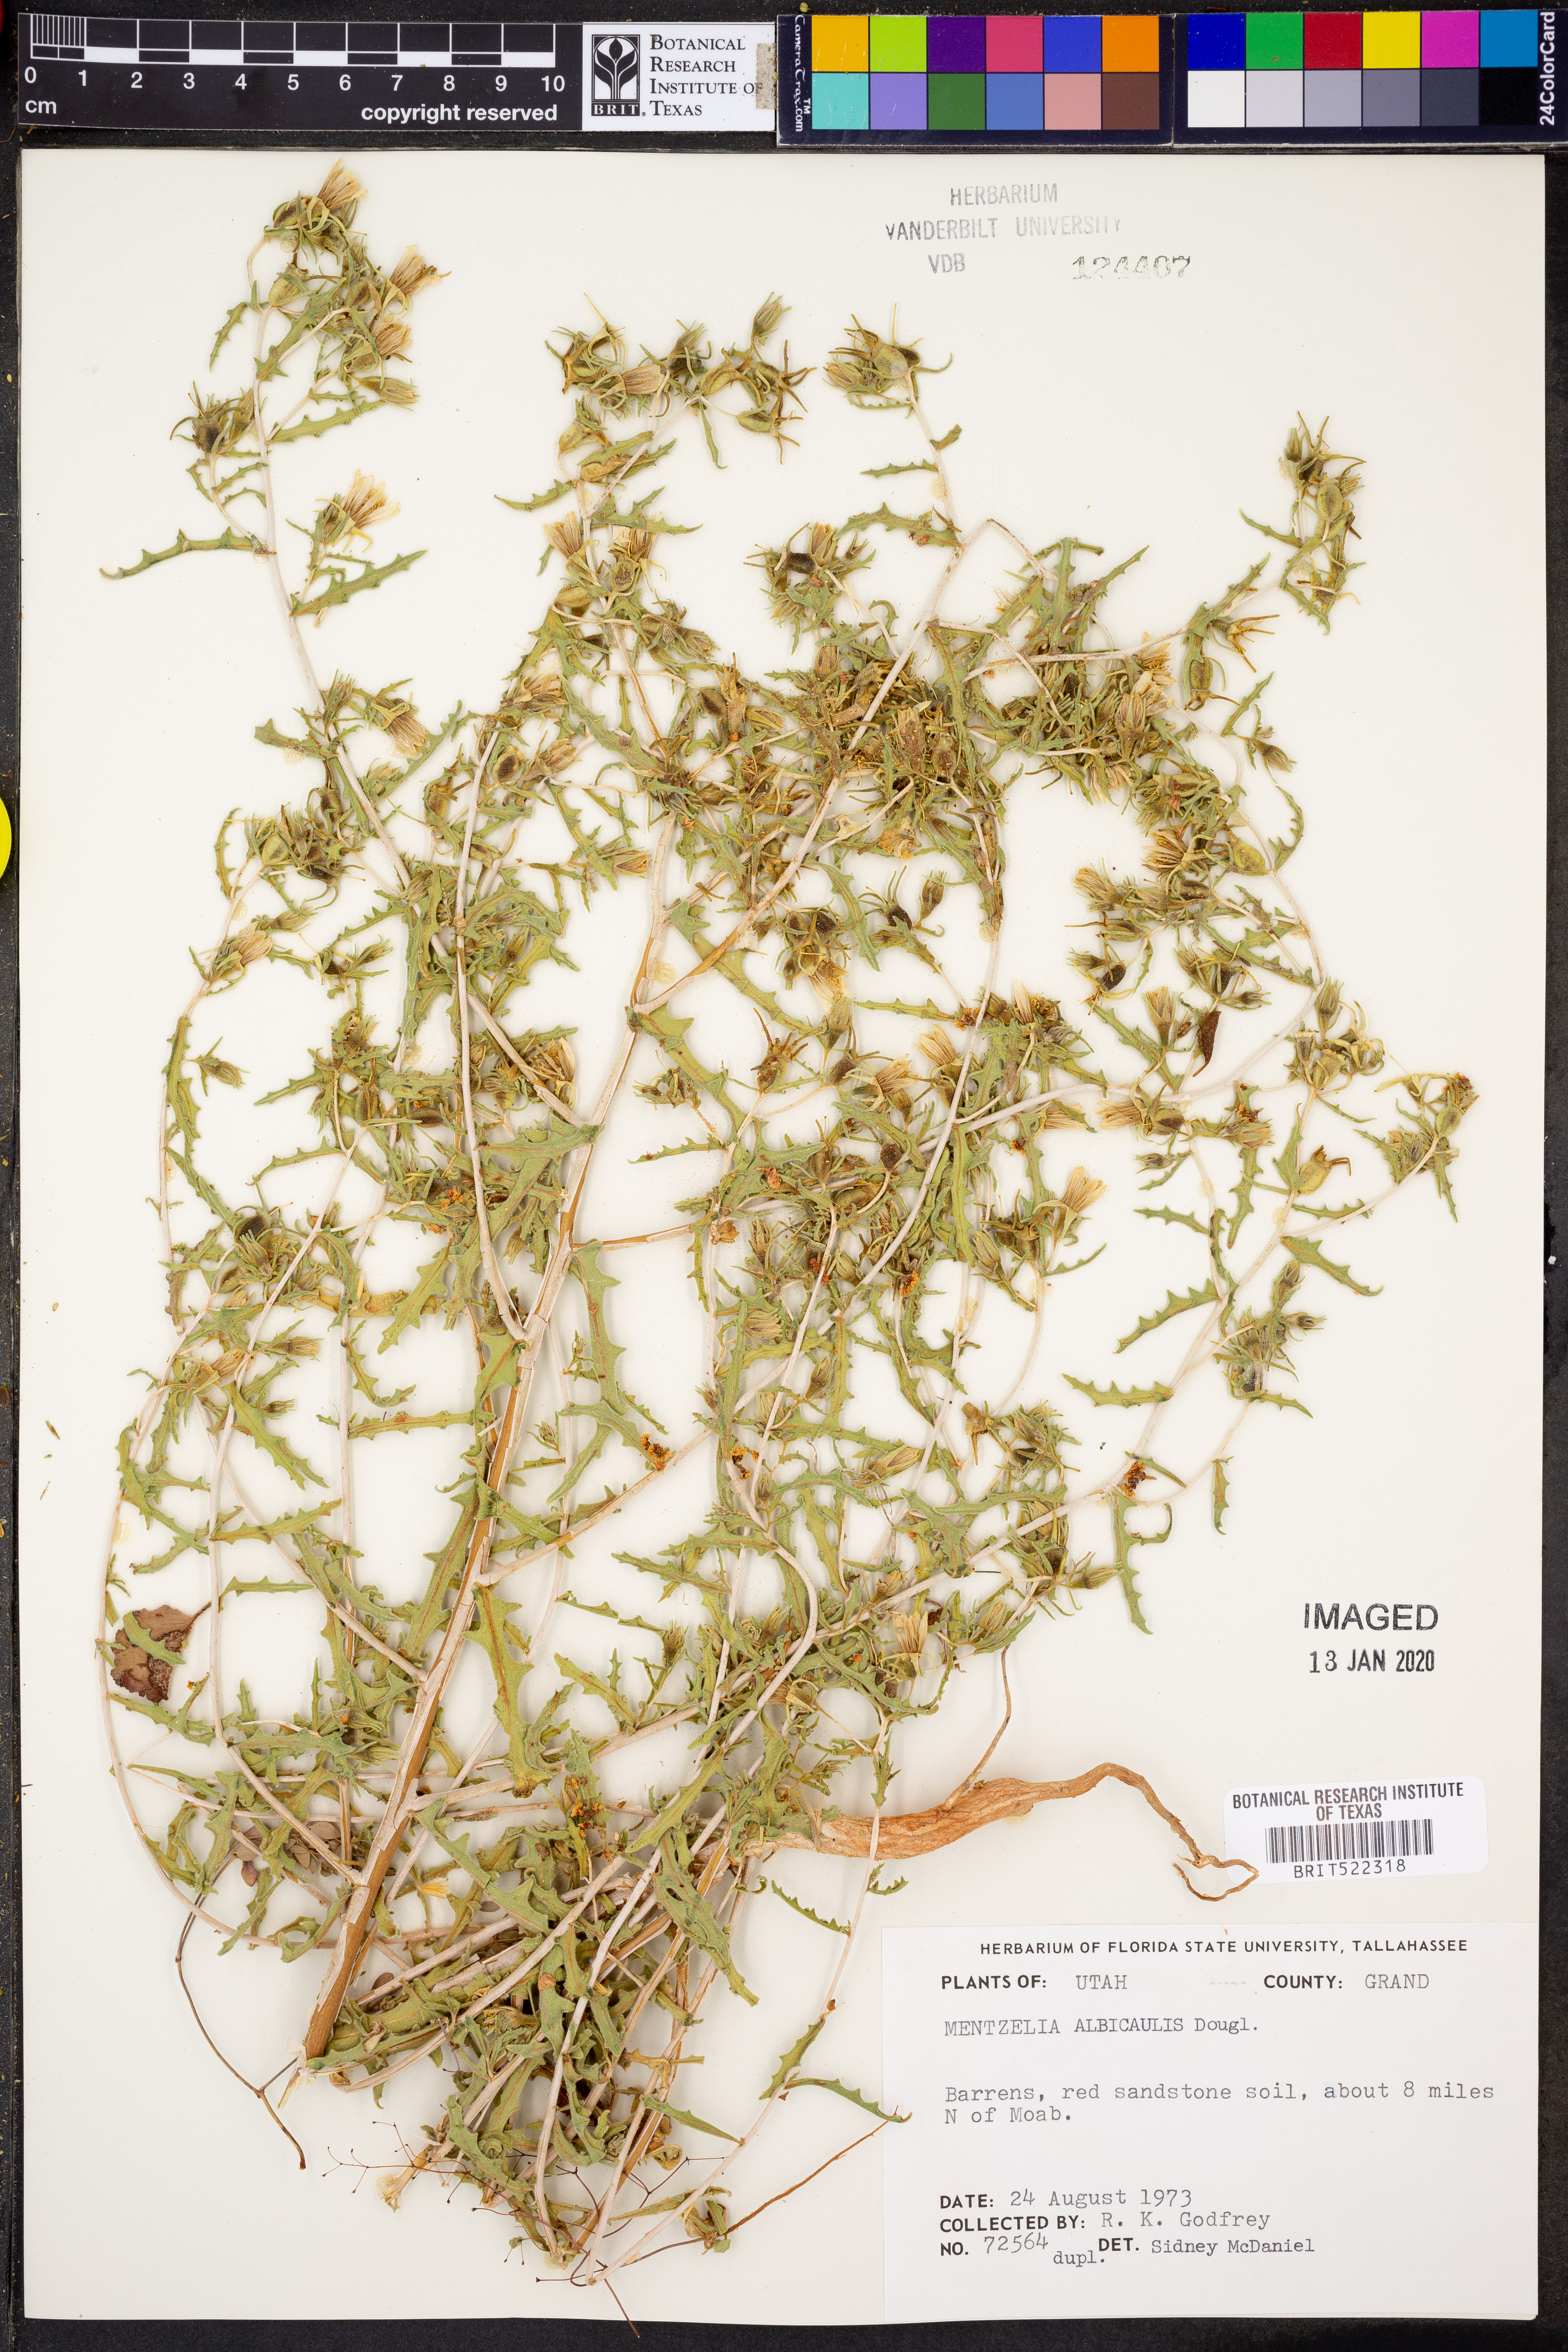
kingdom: Plantae
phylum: Tracheophyta
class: Magnoliopsida
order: Cornales
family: Loasaceae
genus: Mentzelia
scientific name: Mentzelia albicaulis
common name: White-stem blazingstar
